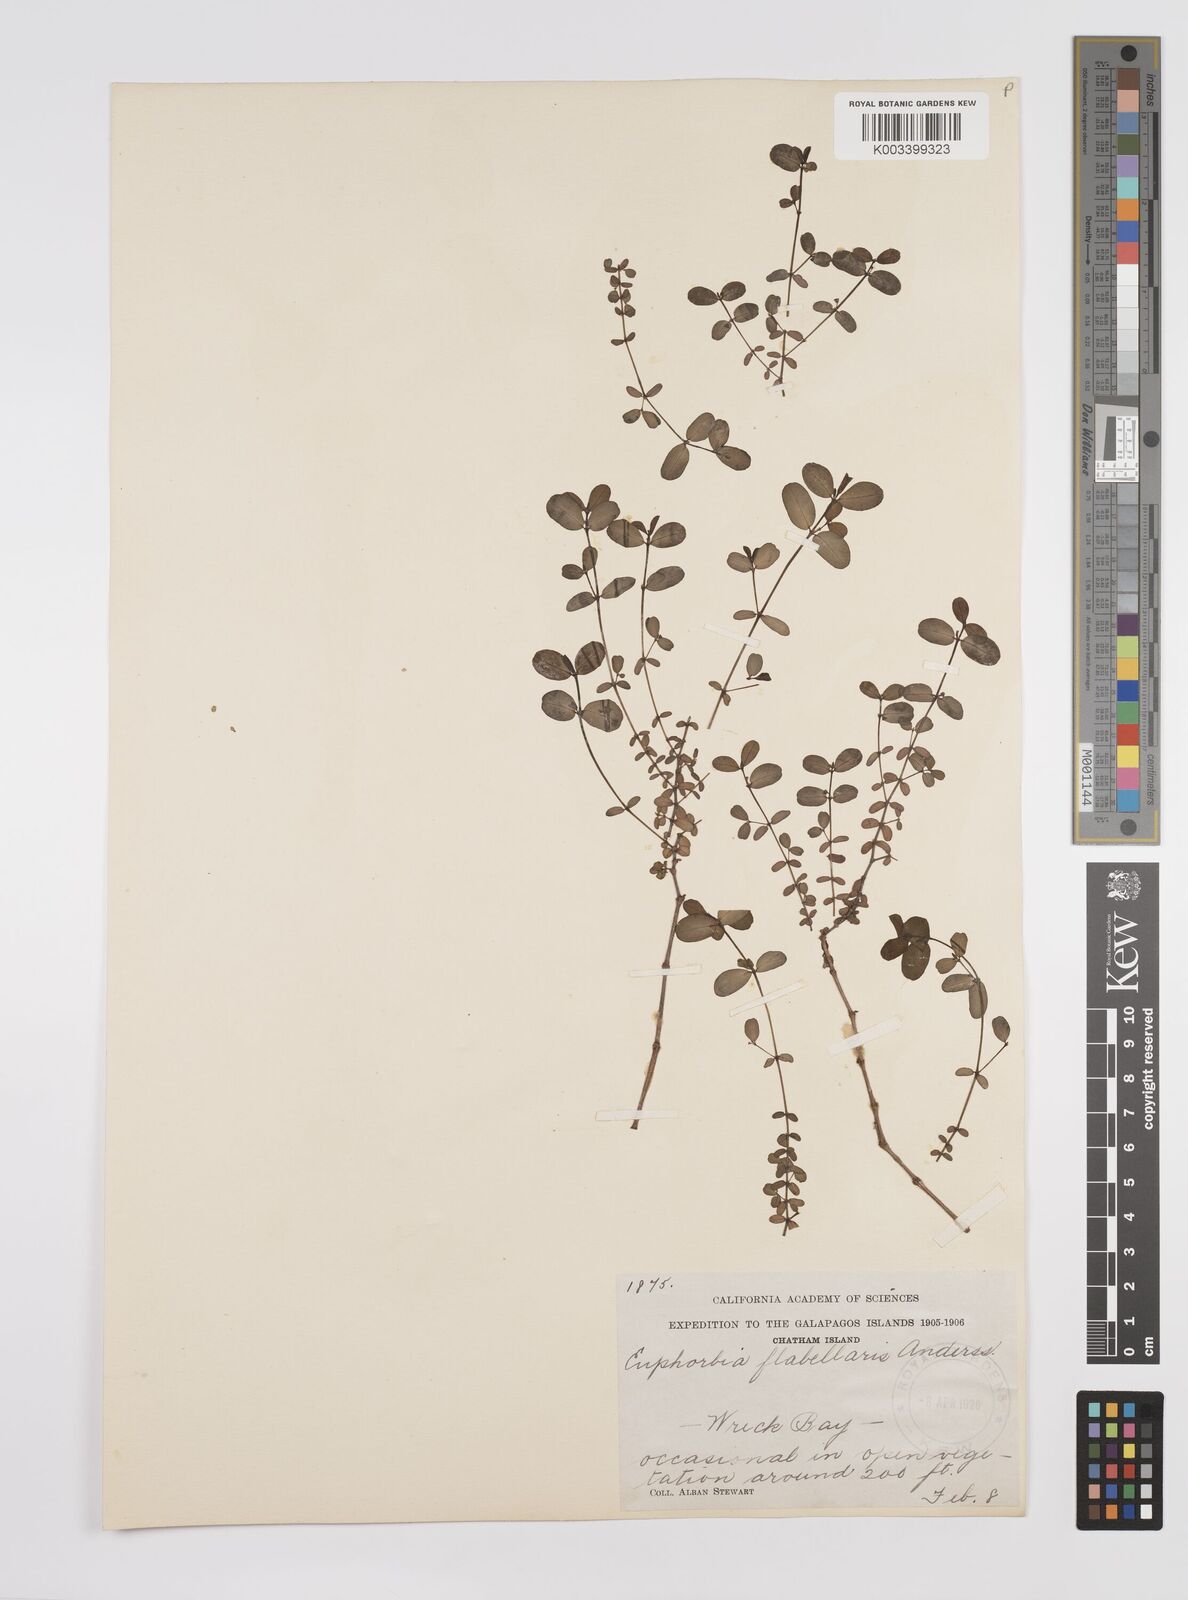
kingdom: Plantae
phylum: Tracheophyta
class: Magnoliopsida
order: Malpighiales
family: Euphorbiaceae
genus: Euphorbia
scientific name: Euphorbia recurva
